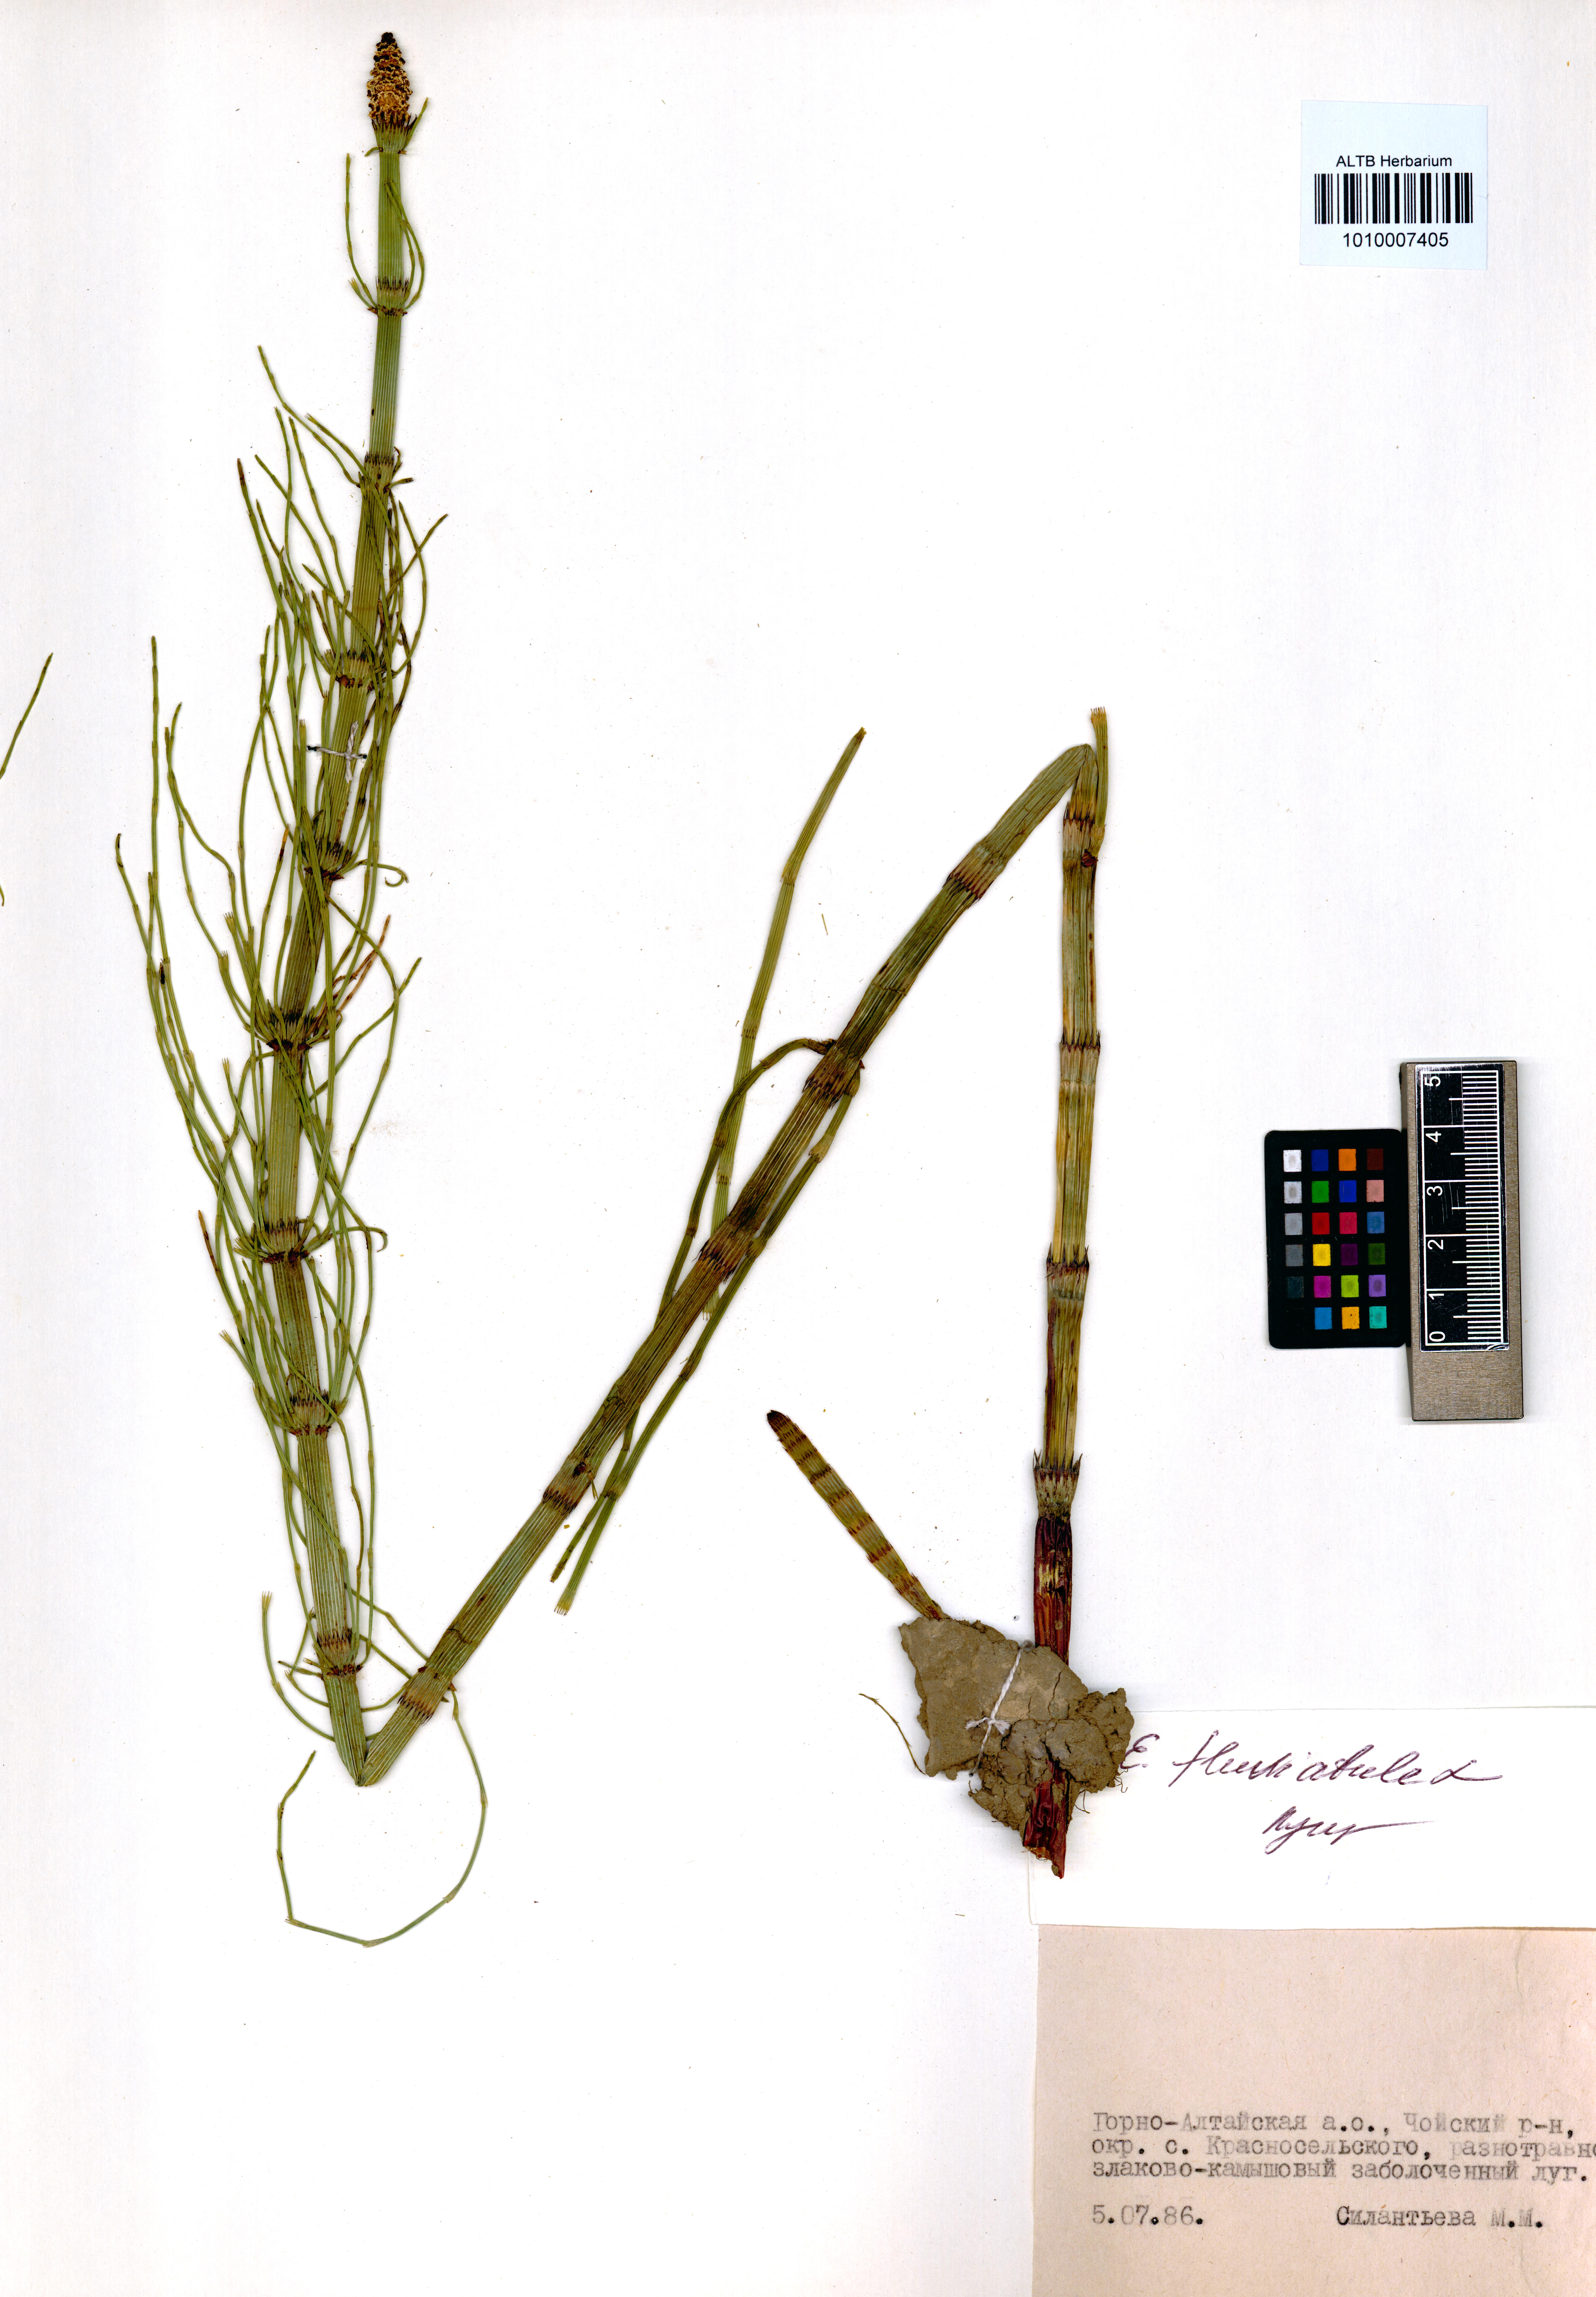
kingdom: Plantae
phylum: Tracheophyta
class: Polypodiopsida
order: Equisetales
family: Equisetaceae
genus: Equisetum
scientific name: Equisetum fluviatile
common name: Water horsetail
